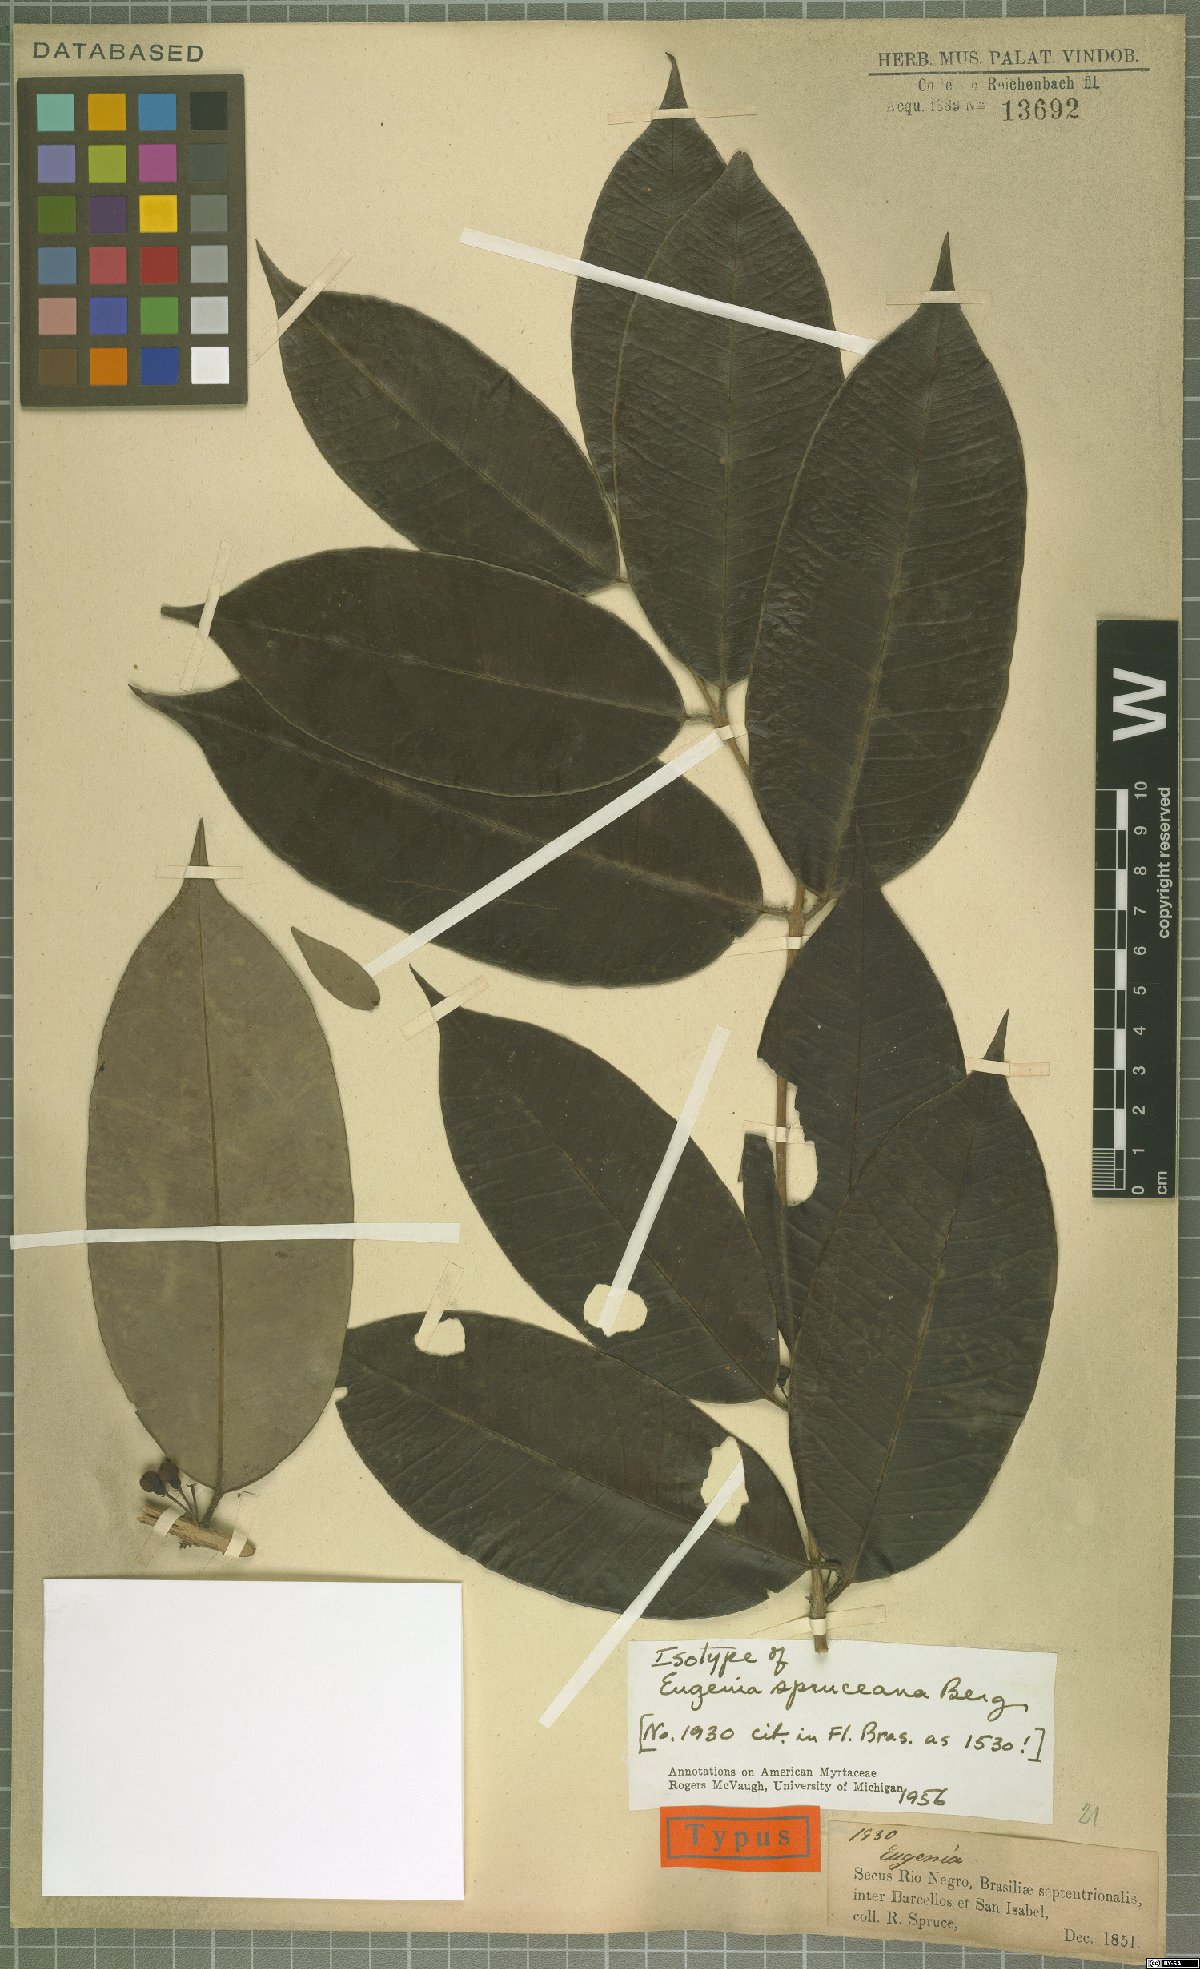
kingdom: Plantae
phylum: Tracheophyta
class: Magnoliopsida
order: Myrtales
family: Myrtaceae
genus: Eugenia
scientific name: Eugenia spruceana
